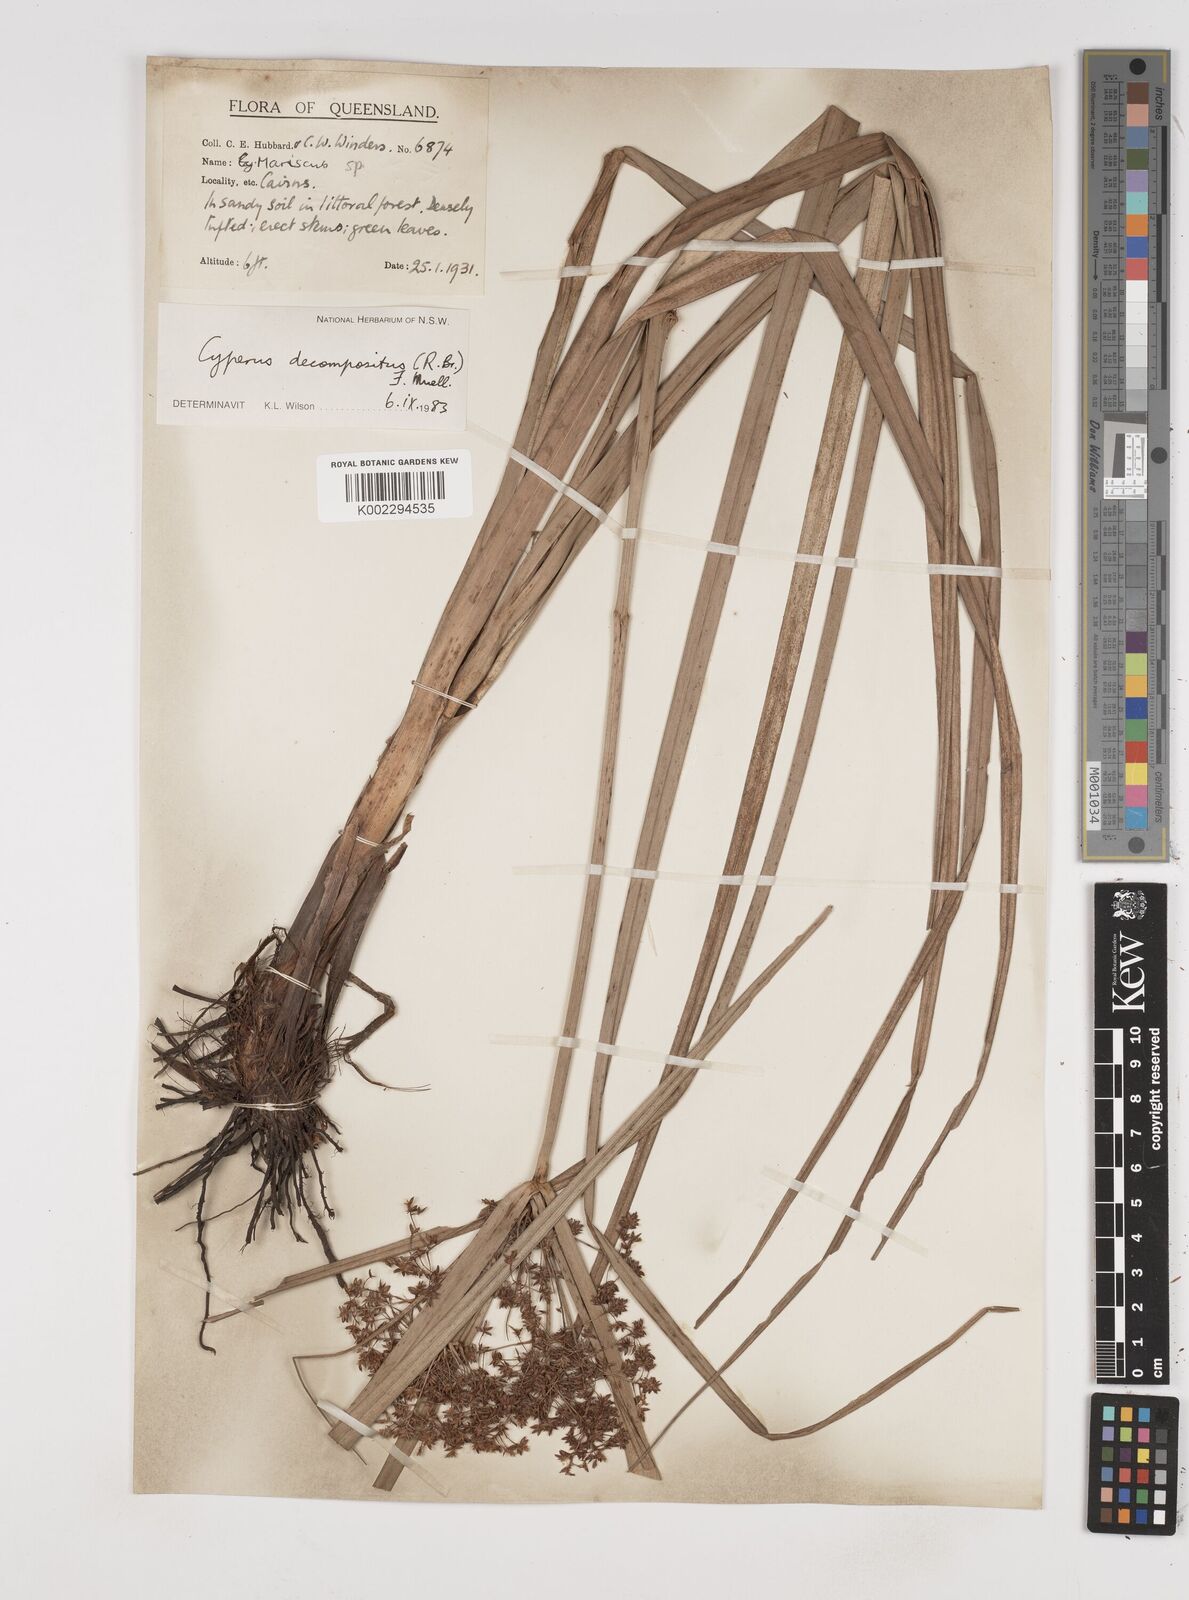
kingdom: Plantae
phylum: Tracheophyta
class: Liliopsida
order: Poales
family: Cyperaceae
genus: Cyperus
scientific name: Cyperus decompositus
